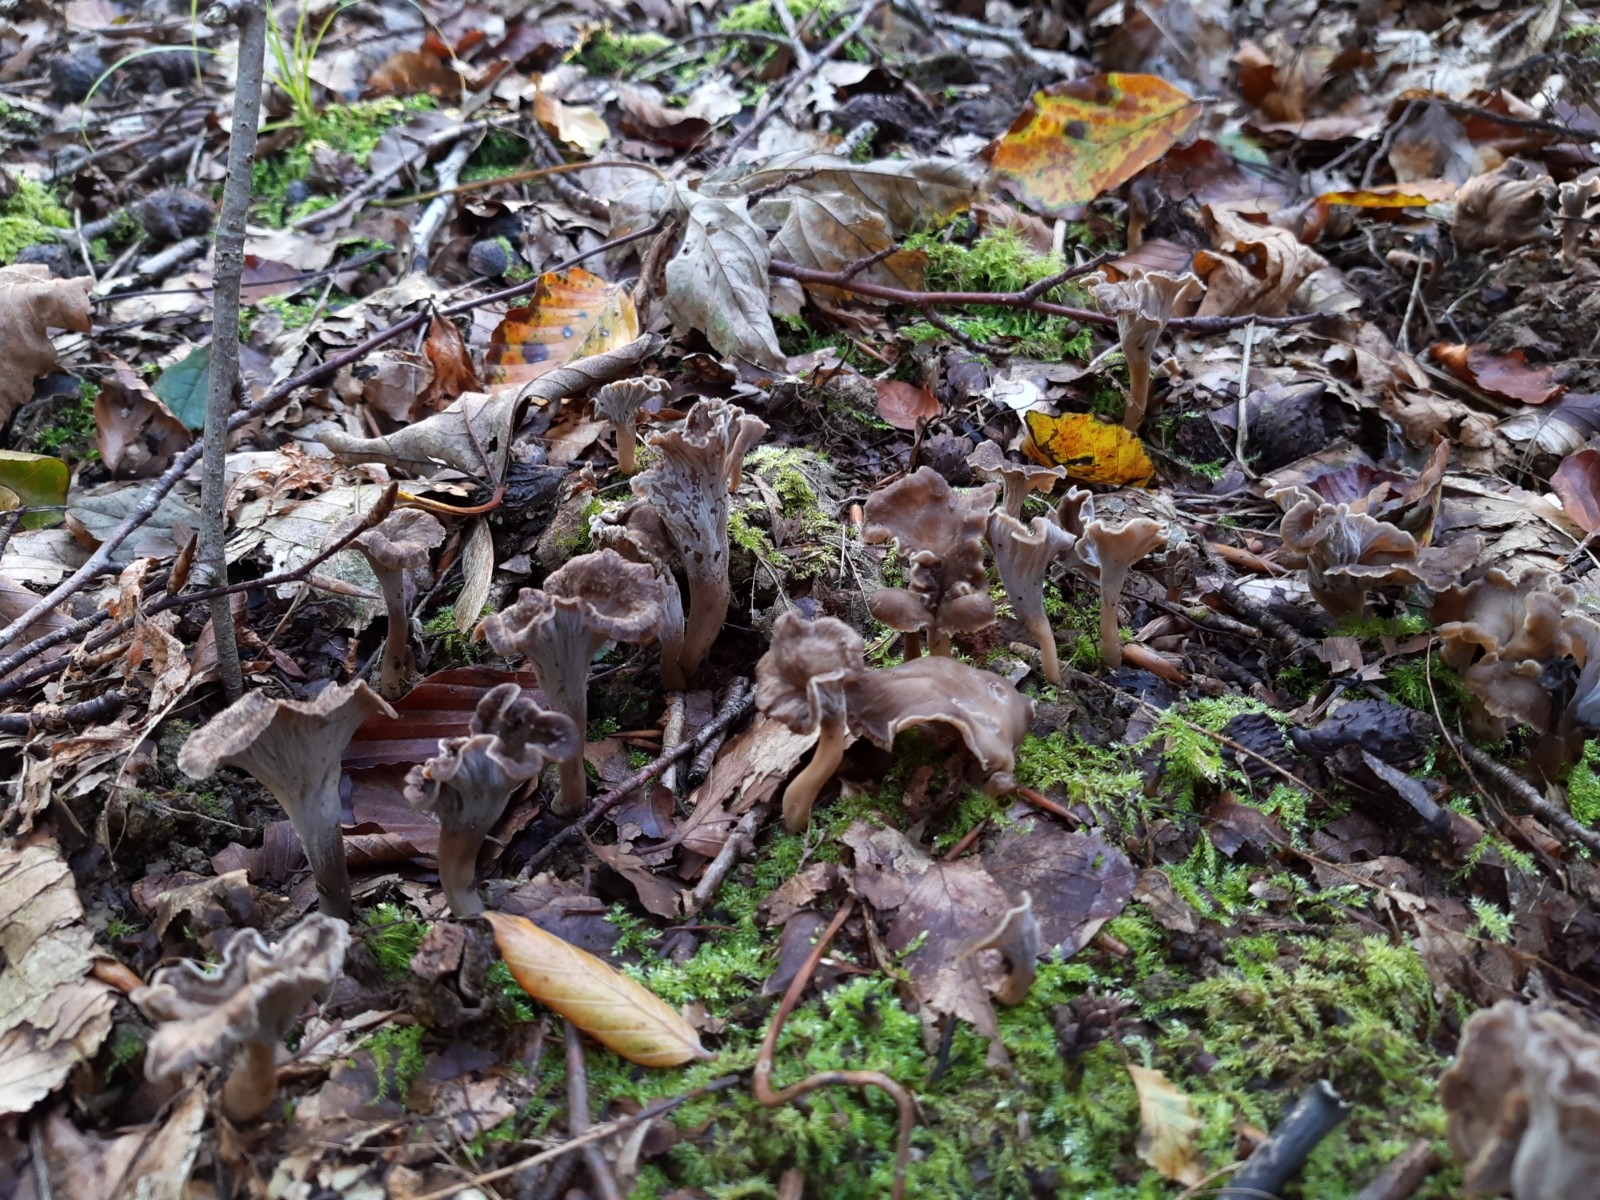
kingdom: Fungi
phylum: Basidiomycota
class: Agaricomycetes
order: Cantharellales
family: Hydnaceae
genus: Craterellus
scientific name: Craterellus undulatus
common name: liden kantarel
